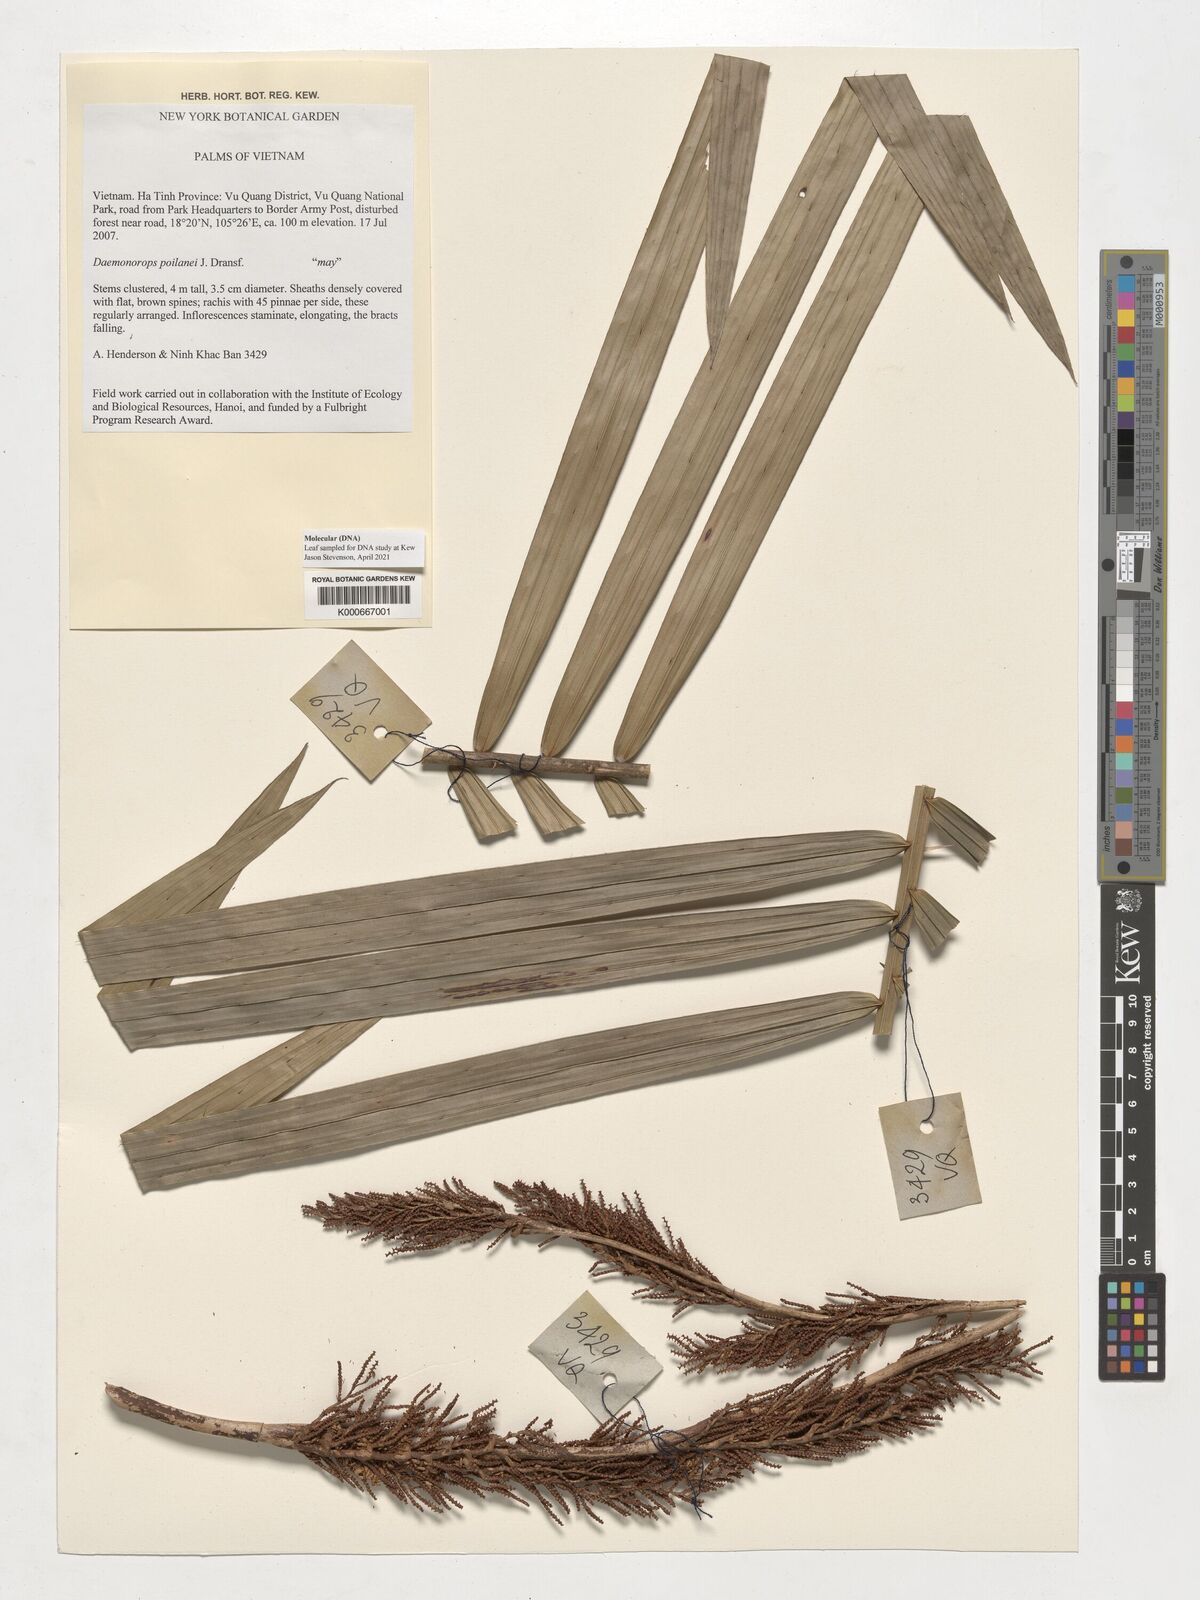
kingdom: Plantae
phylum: Tracheophyta
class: Liliopsida
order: Arecales
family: Arecaceae
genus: Calamus
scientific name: Calamus eugenei
